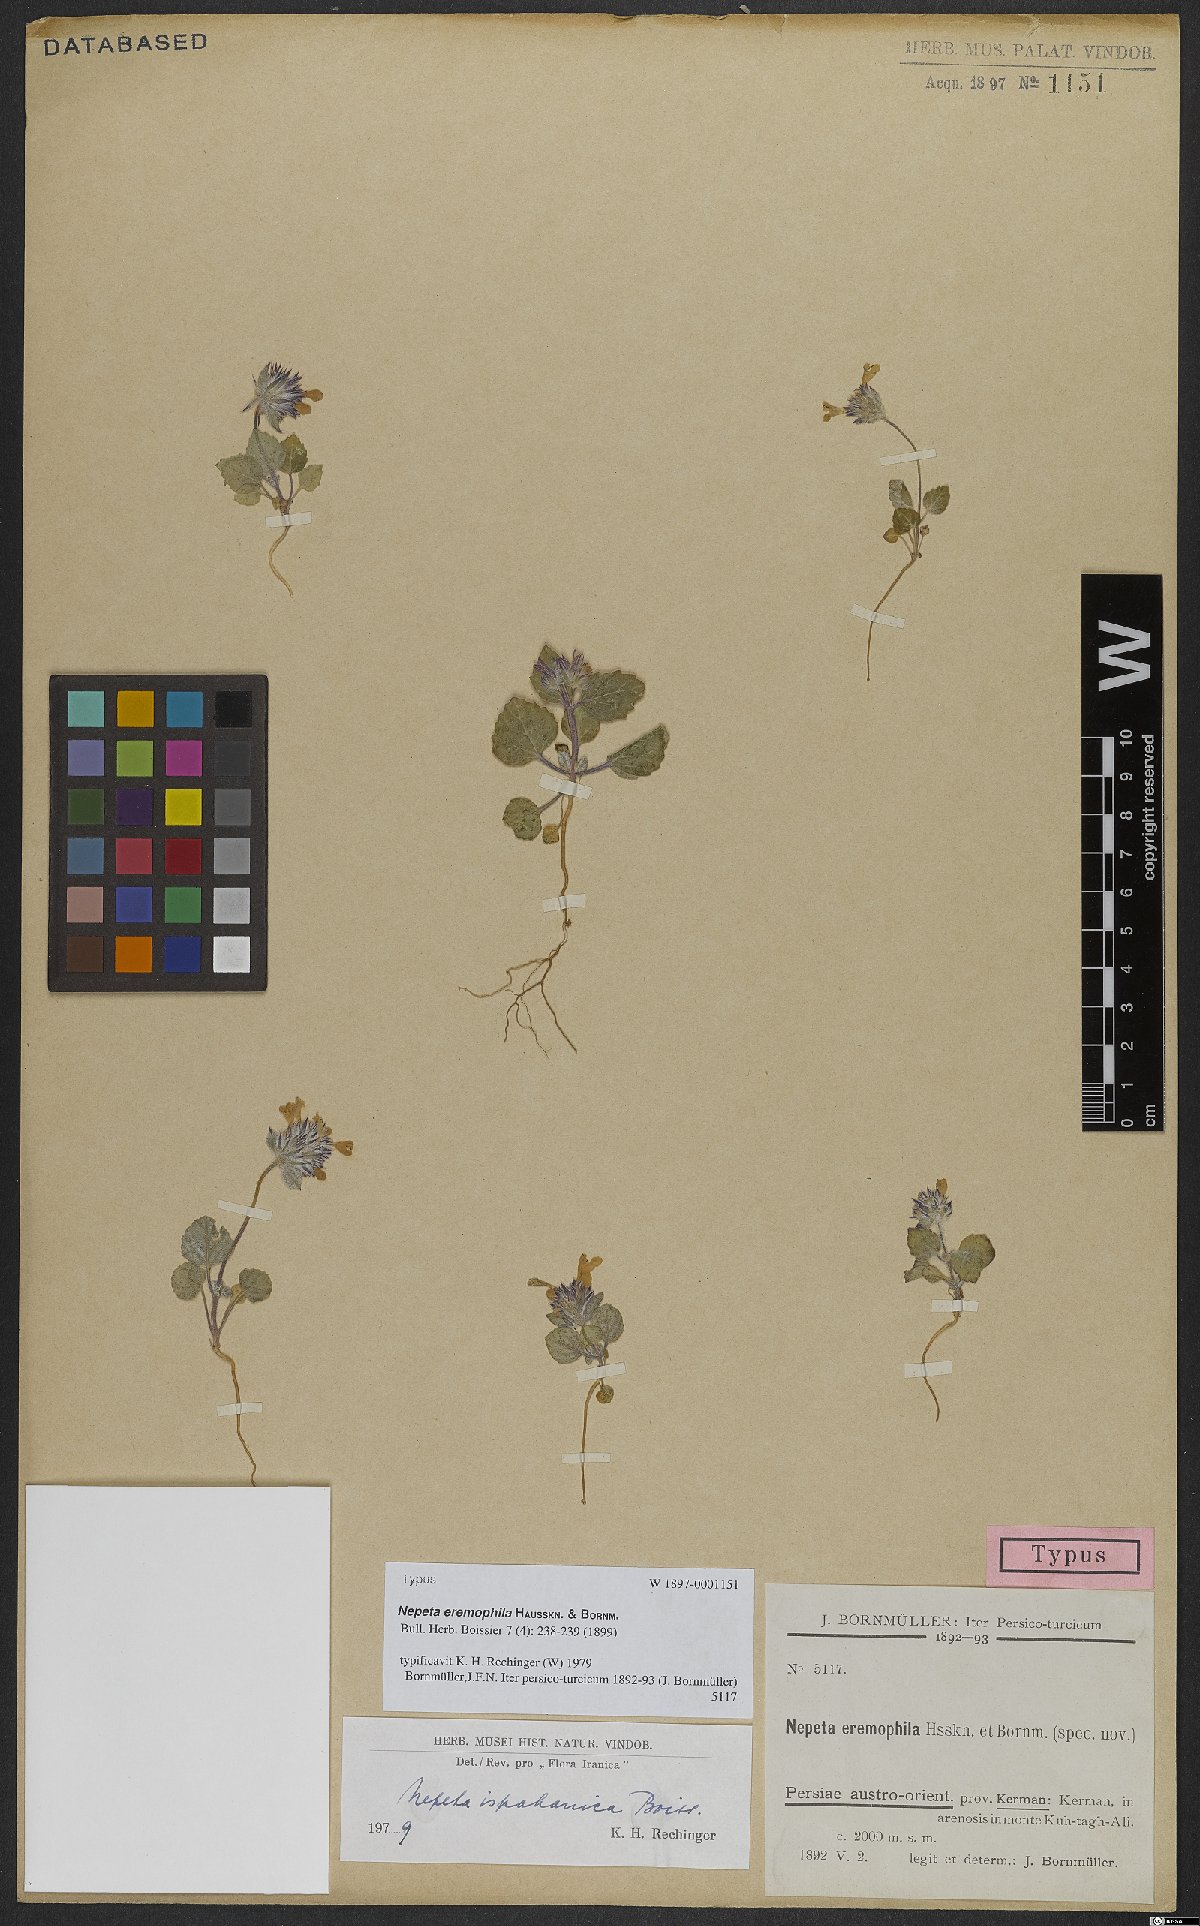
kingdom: Plantae
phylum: Tracheophyta
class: Magnoliopsida
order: Lamiales
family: Lamiaceae
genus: Nepeta
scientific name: Nepeta ispahanica
